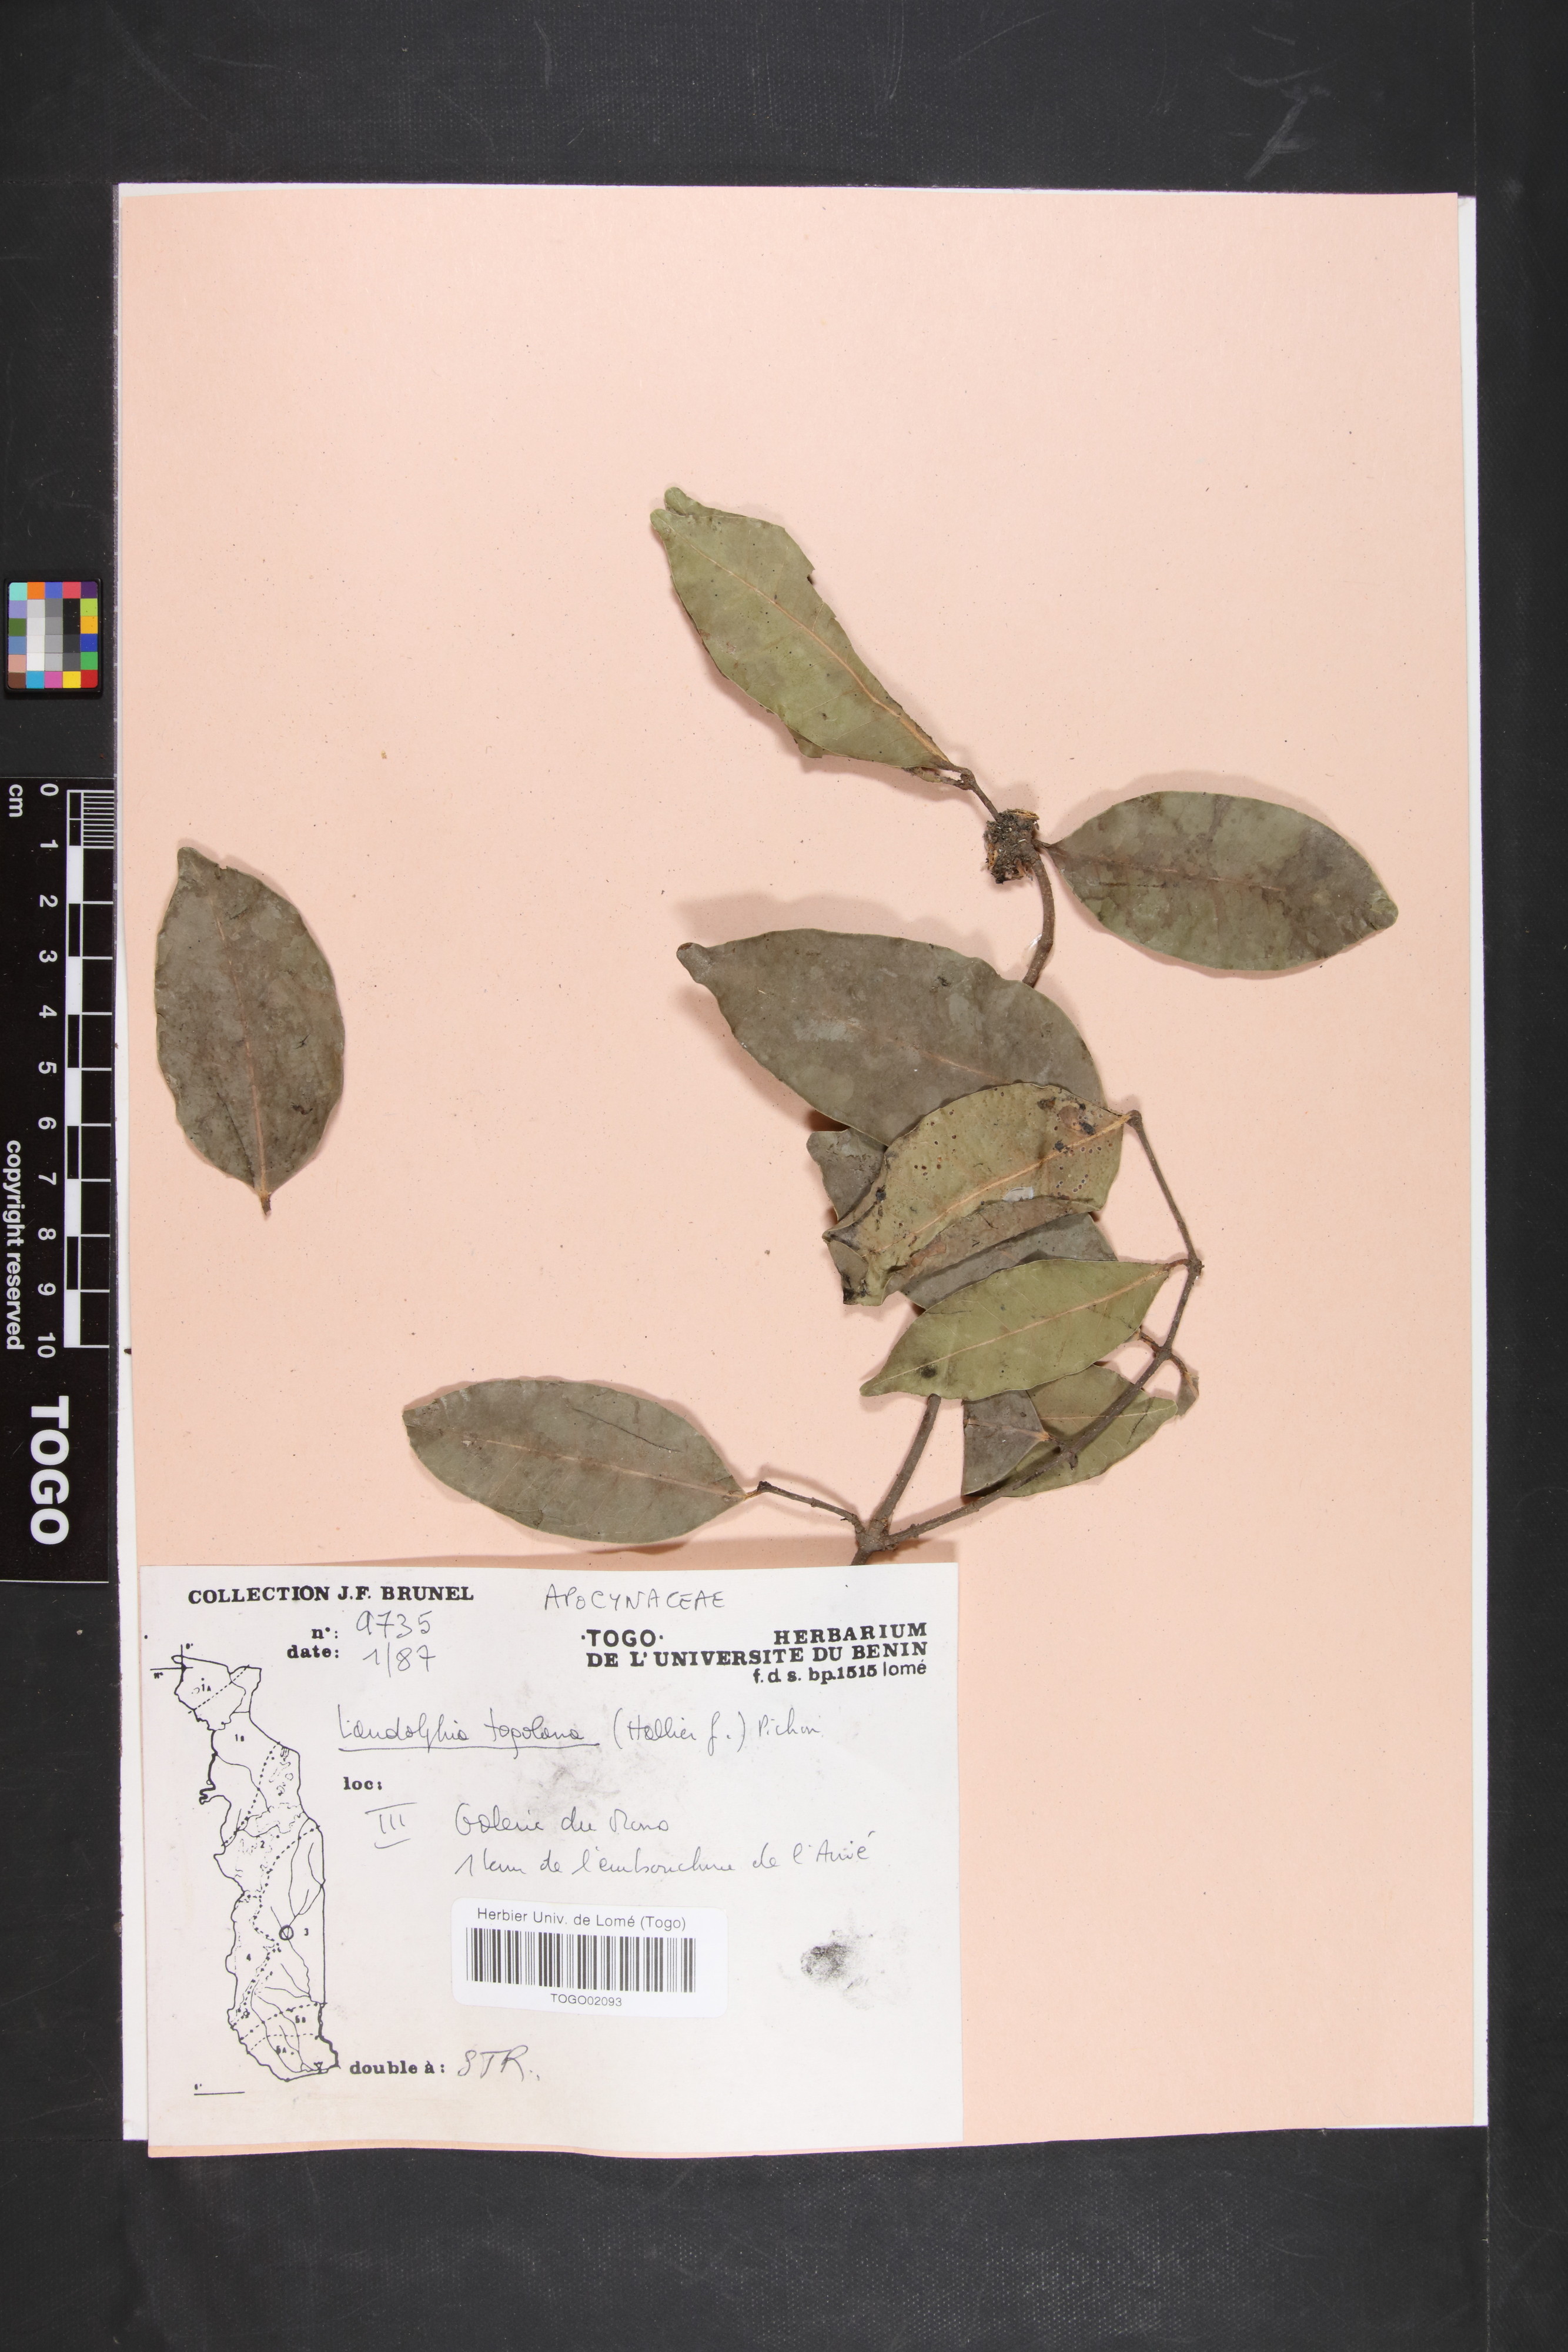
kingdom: Plantae
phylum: Tracheophyta
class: Magnoliopsida
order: Gentianales
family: Apocynaceae
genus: Landolphia
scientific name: Landolphia togolana
